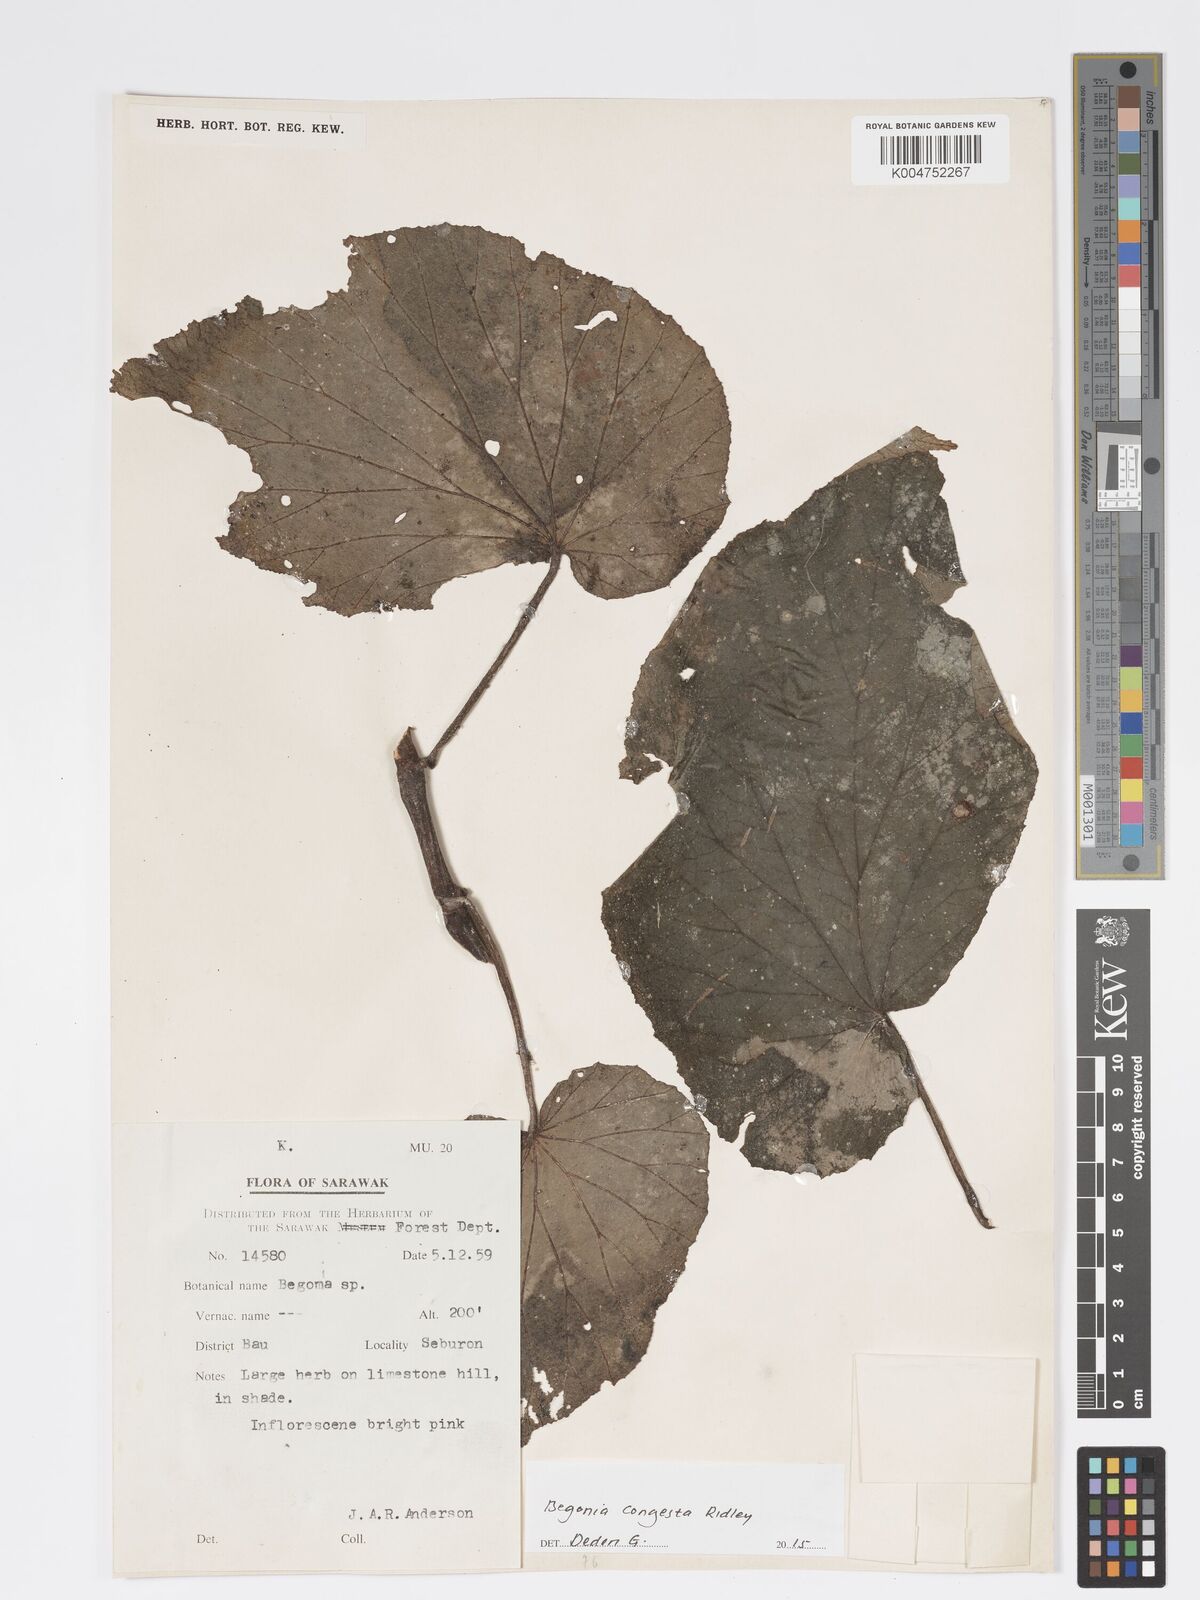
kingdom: Plantae
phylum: Tracheophyta
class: Magnoliopsida
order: Cucurbitales
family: Begoniaceae
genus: Begonia
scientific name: Begonia congesta
